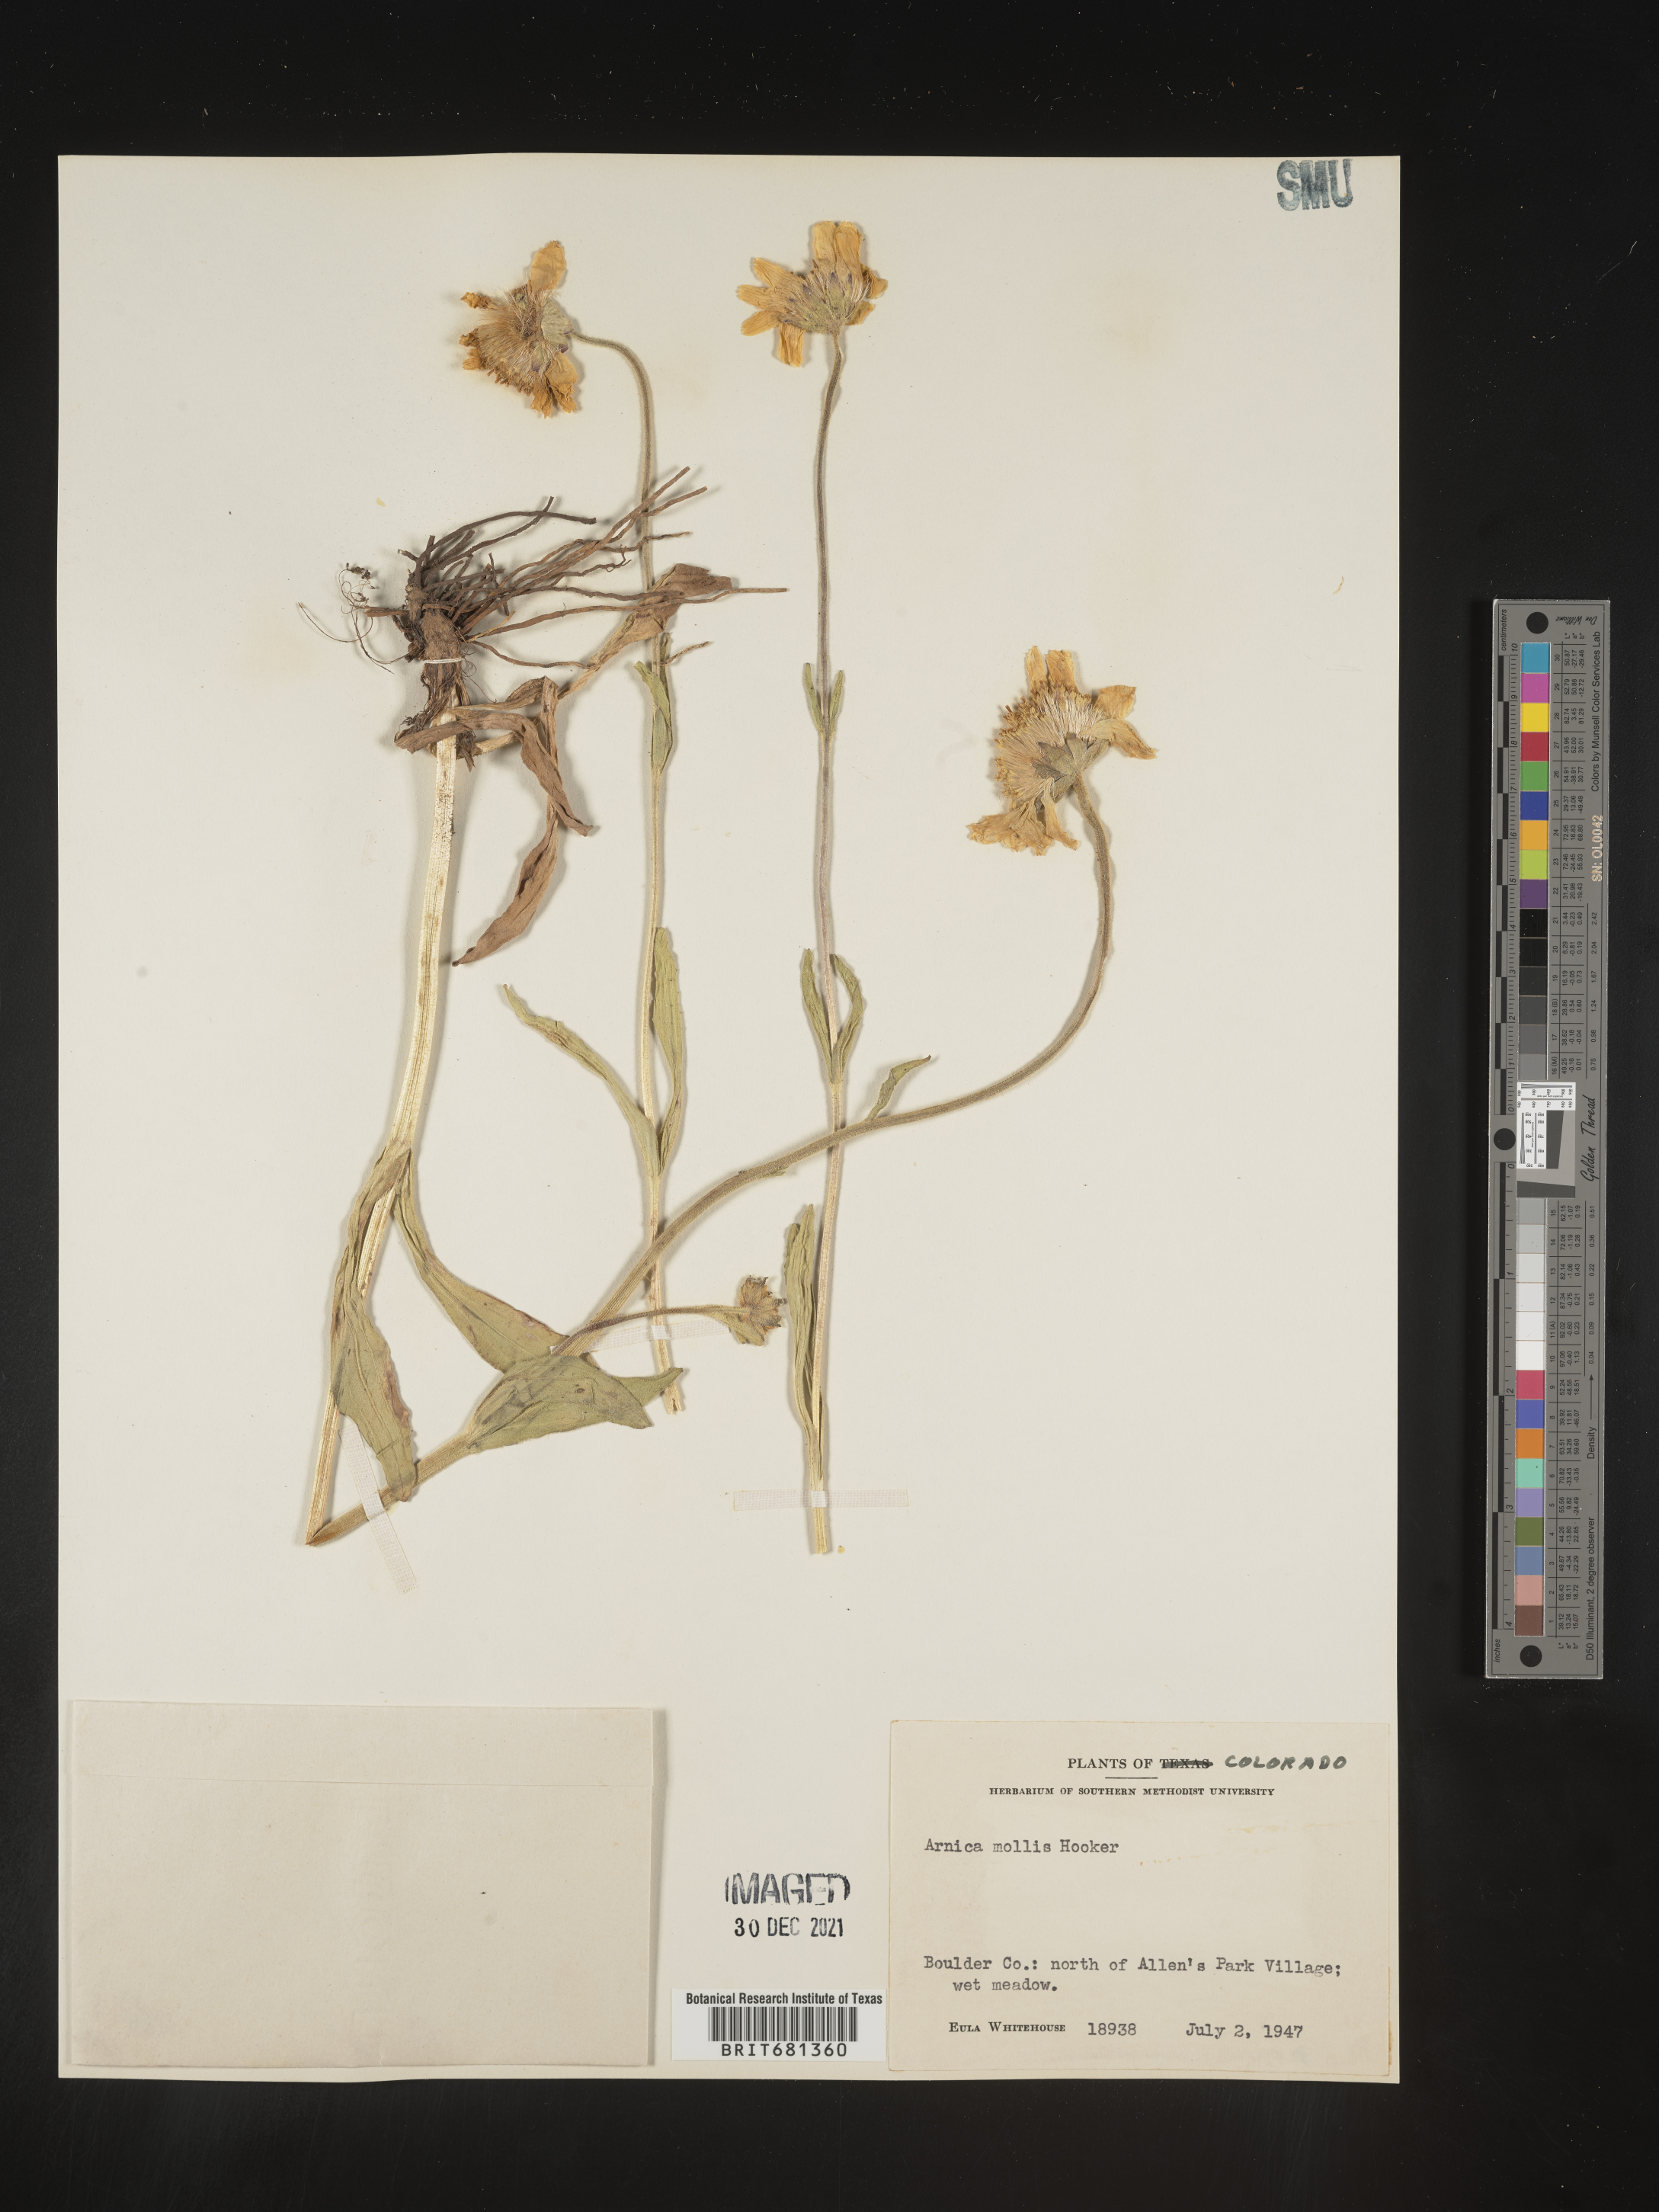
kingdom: Plantae
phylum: Tracheophyta
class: Magnoliopsida
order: Asterales
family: Asteraceae
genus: Arnica
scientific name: Arnica mollis
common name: Hairy arnica
